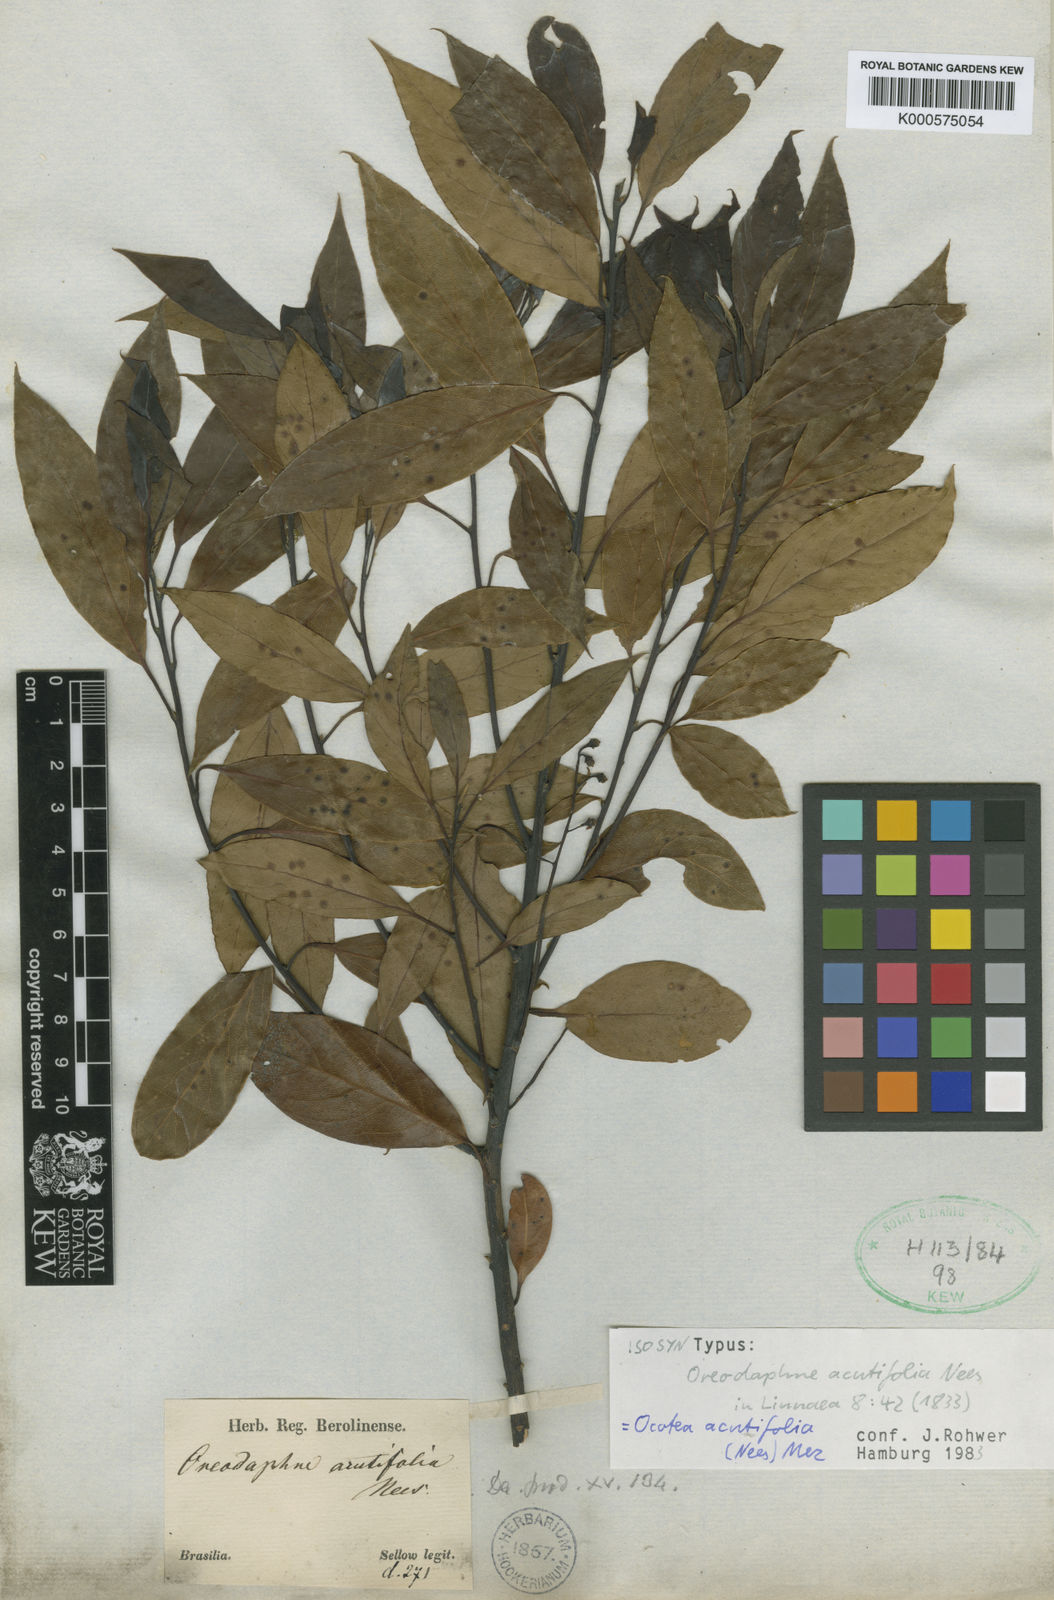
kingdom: Plantae
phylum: Tracheophyta
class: Magnoliopsida
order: Laurales
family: Lauraceae
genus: Ocotea
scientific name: Ocotea acutifolia
